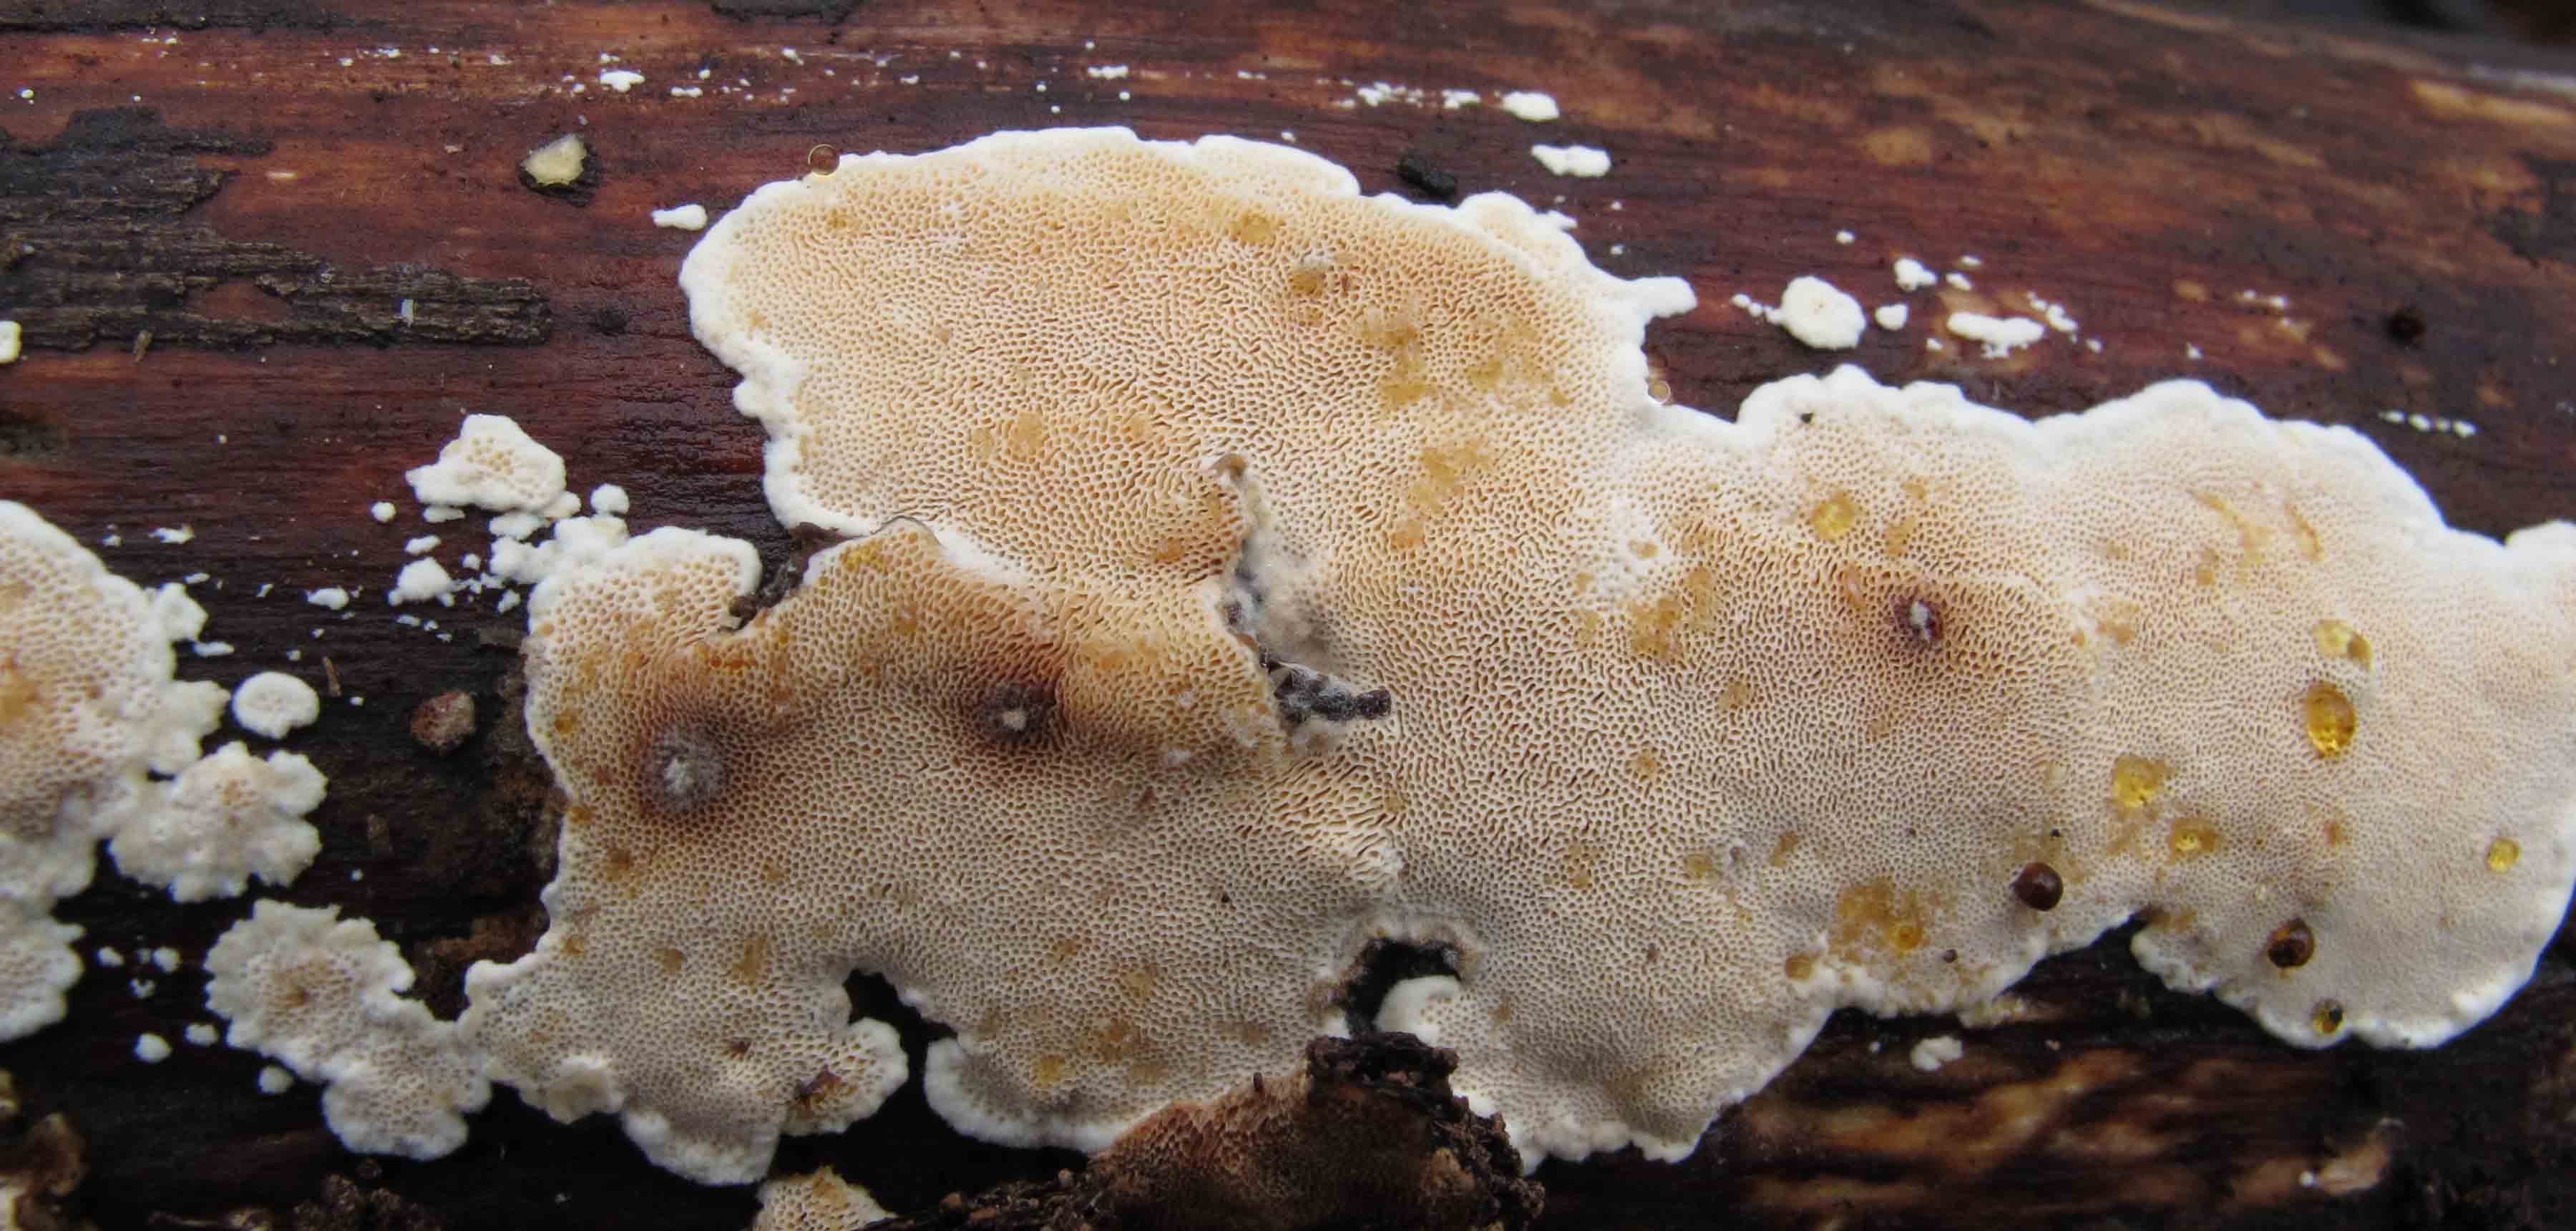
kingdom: Fungi
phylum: Basidiomycota
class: Agaricomycetes
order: Polyporales
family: Steccherinaceae
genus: Junghuhnia
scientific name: Junghuhnia nitida
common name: almindelig skønporesvamp
